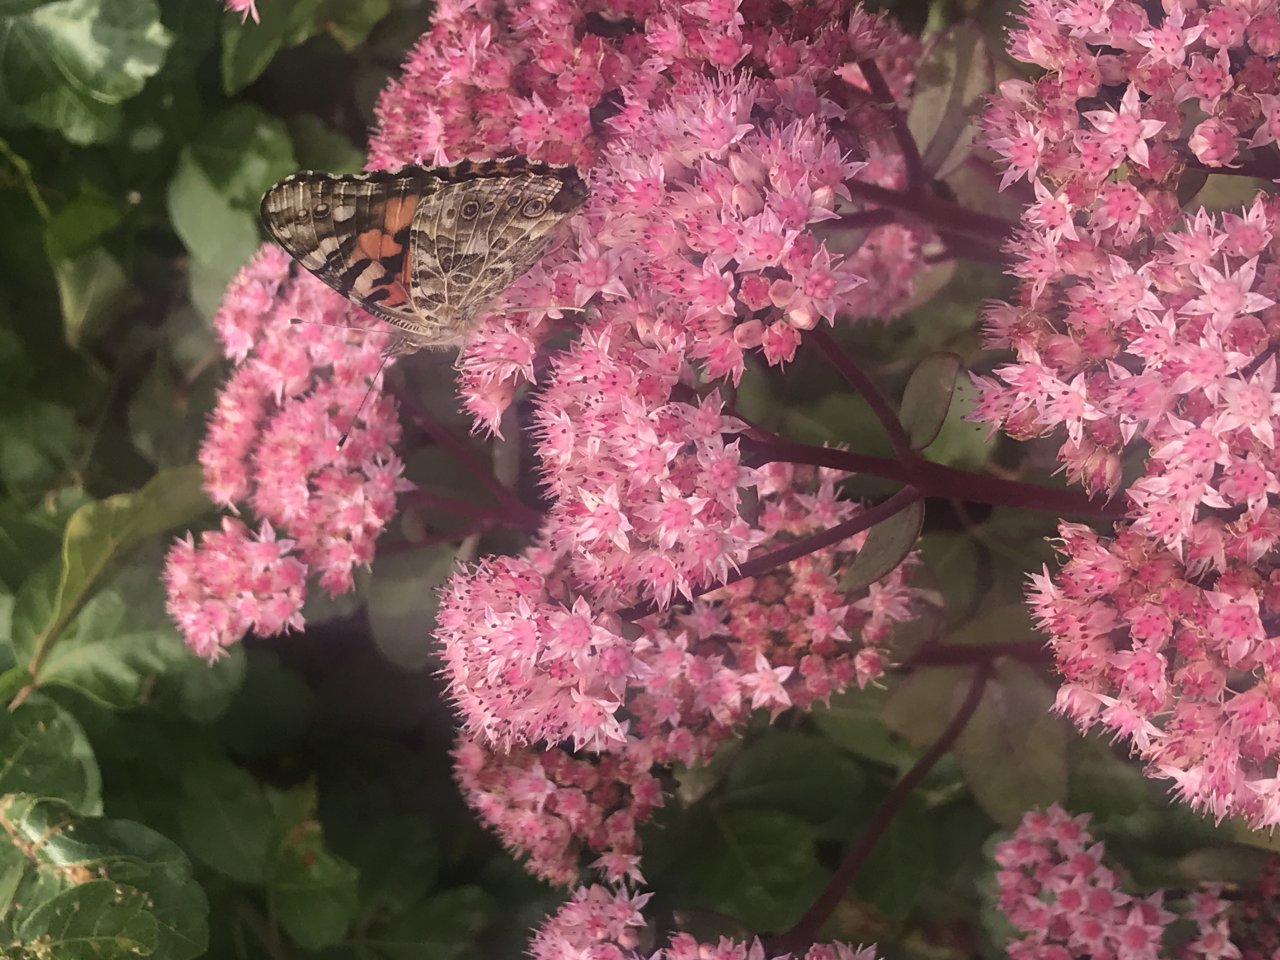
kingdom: Animalia
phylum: Arthropoda
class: Insecta
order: Lepidoptera
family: Nymphalidae
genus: Vanessa
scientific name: Vanessa cardui
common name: Painted Lady
